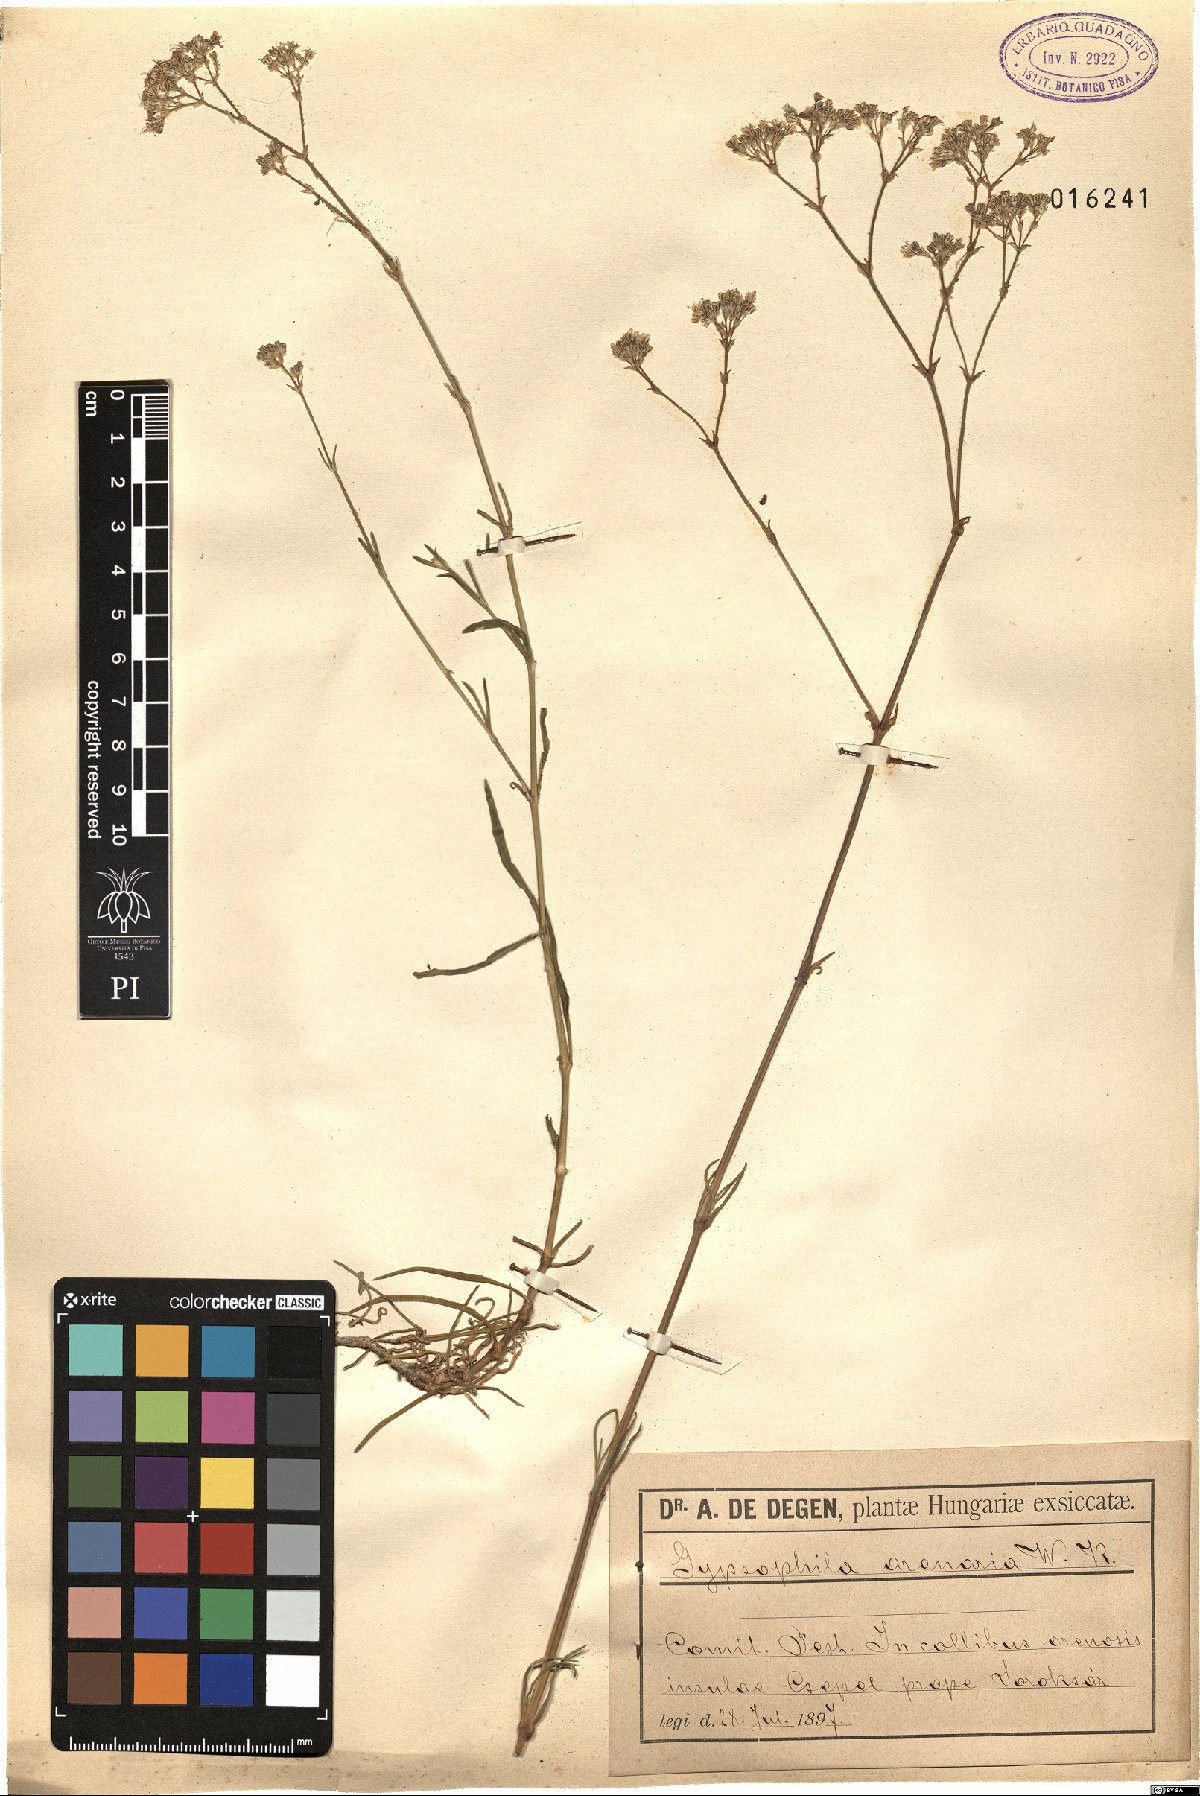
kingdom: Plantae
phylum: Tracheophyta
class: Magnoliopsida
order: Caryophyllales
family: Caryophyllaceae
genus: Gypsophila
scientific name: Gypsophila fastigiata
